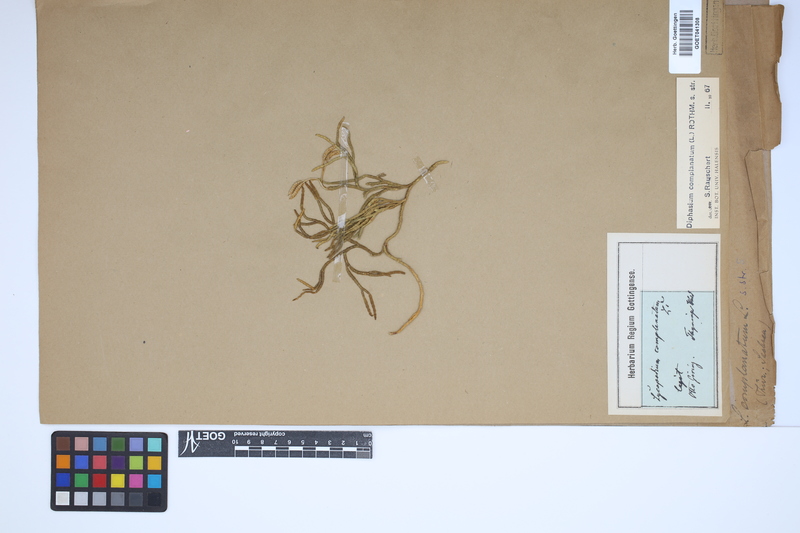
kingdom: Plantae
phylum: Tracheophyta
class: Lycopodiopsida
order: Lycopodiales
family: Lycopodiaceae
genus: Diphasiastrum
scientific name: Diphasiastrum complanatum
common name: Northern running-pine
